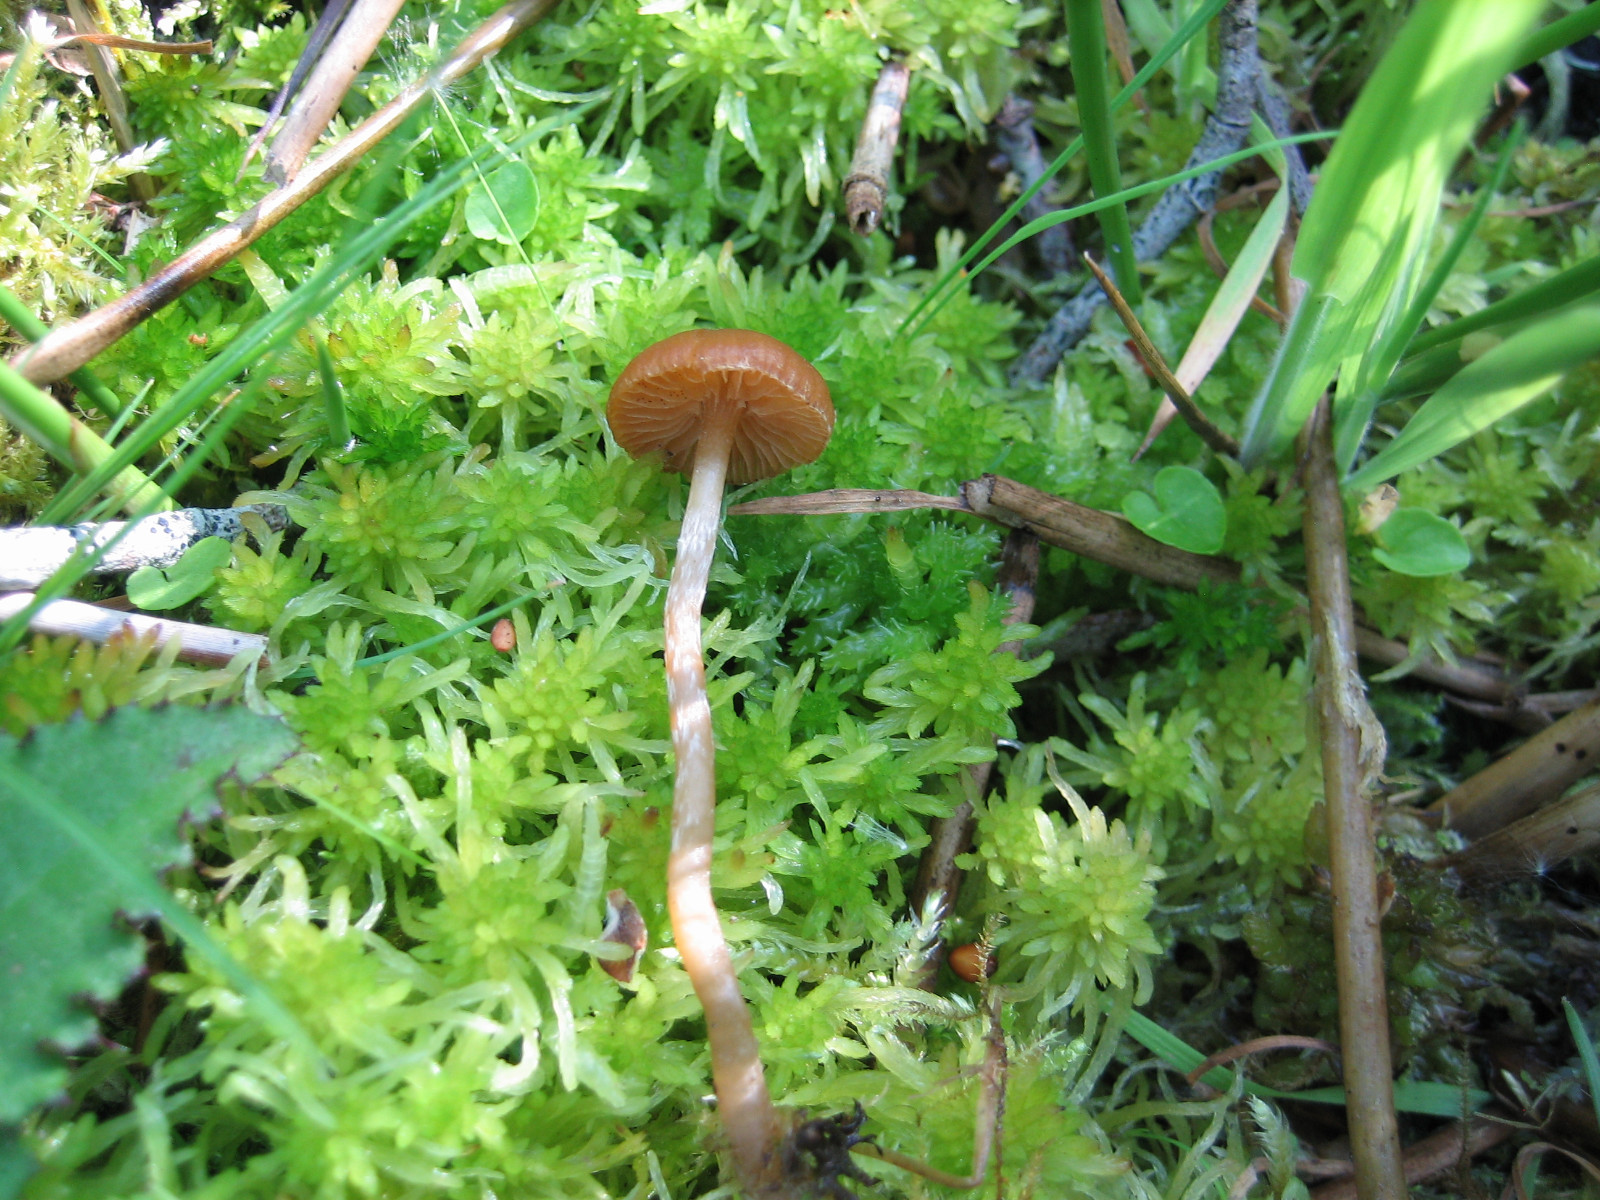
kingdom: Fungi
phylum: Basidiomycota
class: Agaricomycetes
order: Agaricales
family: Hymenogastraceae
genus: Galerina
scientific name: Galerina paludosa
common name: mose-hjelmhat
